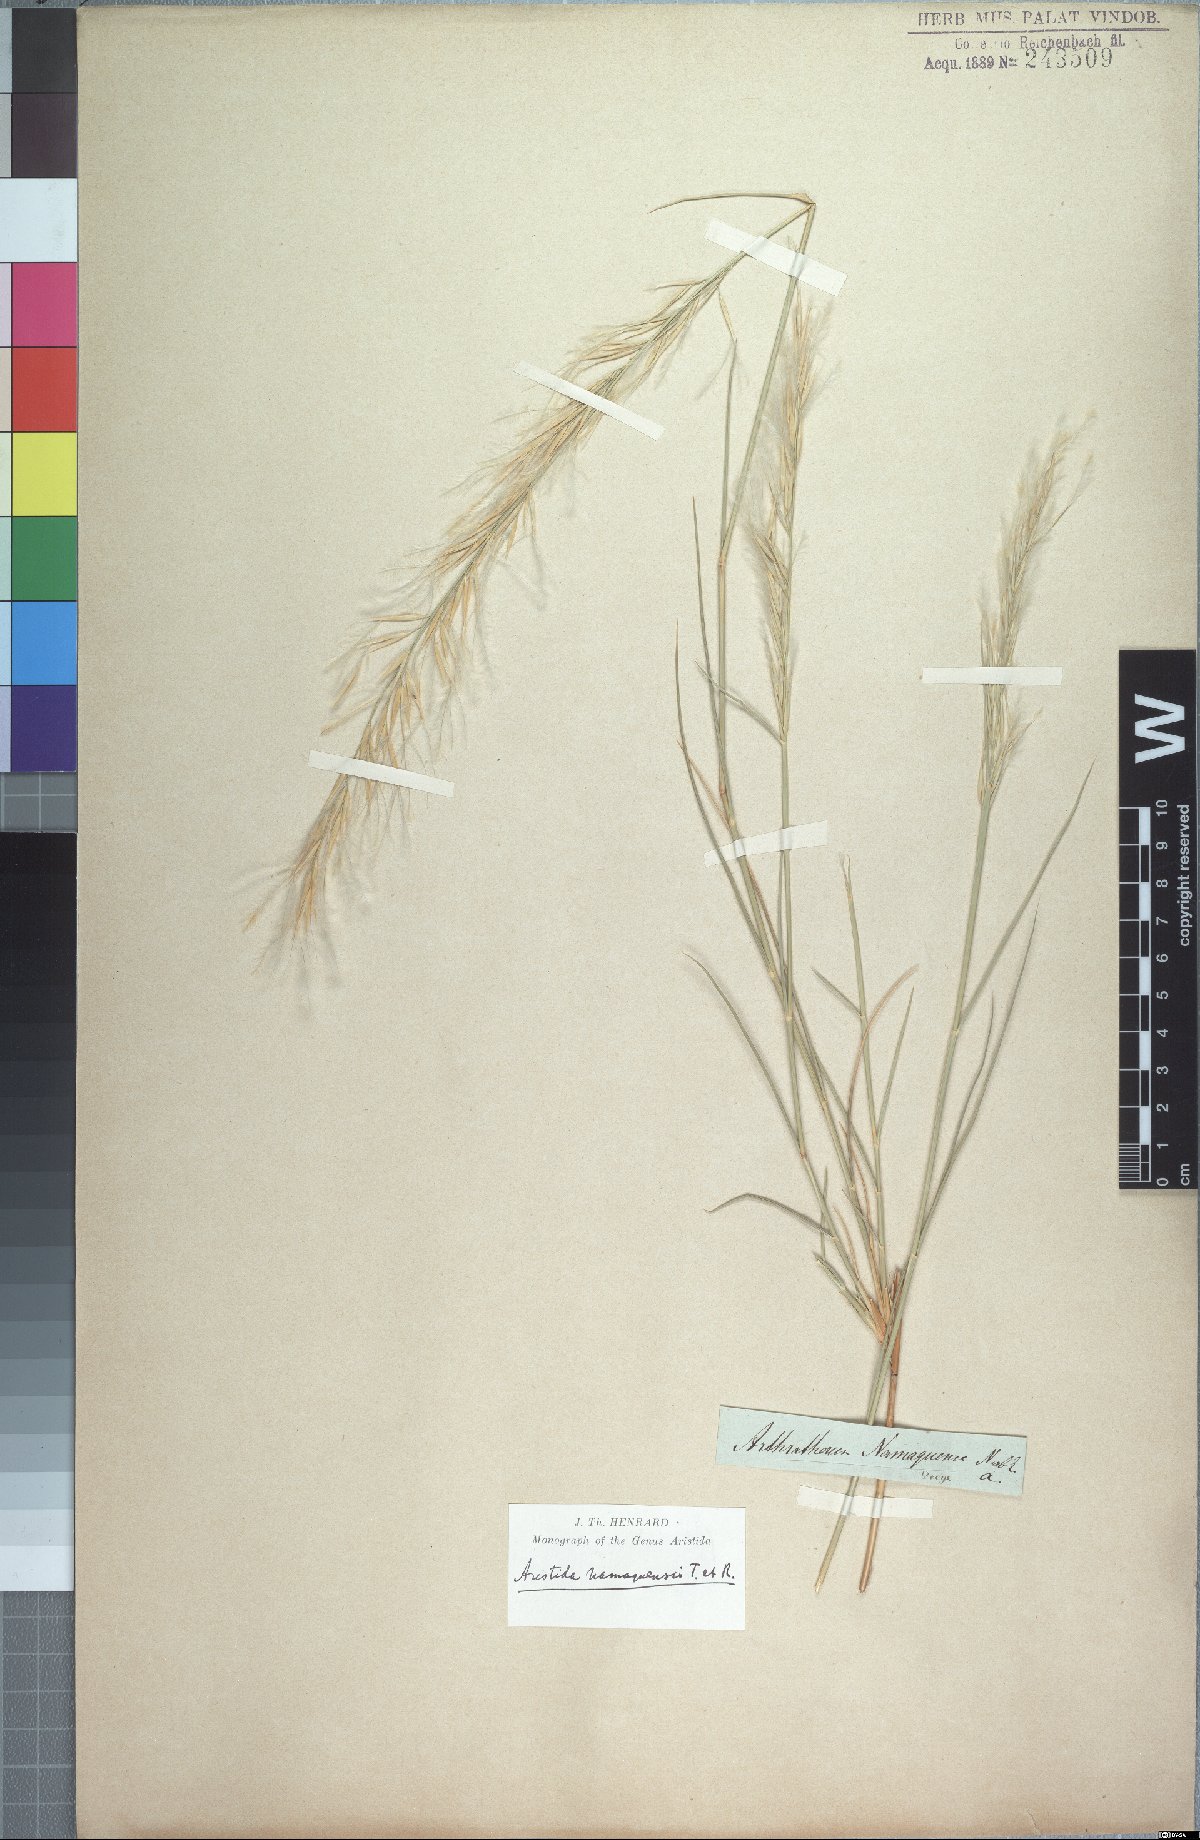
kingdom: Plantae
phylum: Tracheophyta
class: Liliopsida
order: Poales
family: Poaceae
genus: Stipagrostis
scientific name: Stipagrostis namaquensis
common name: River bushman grass
